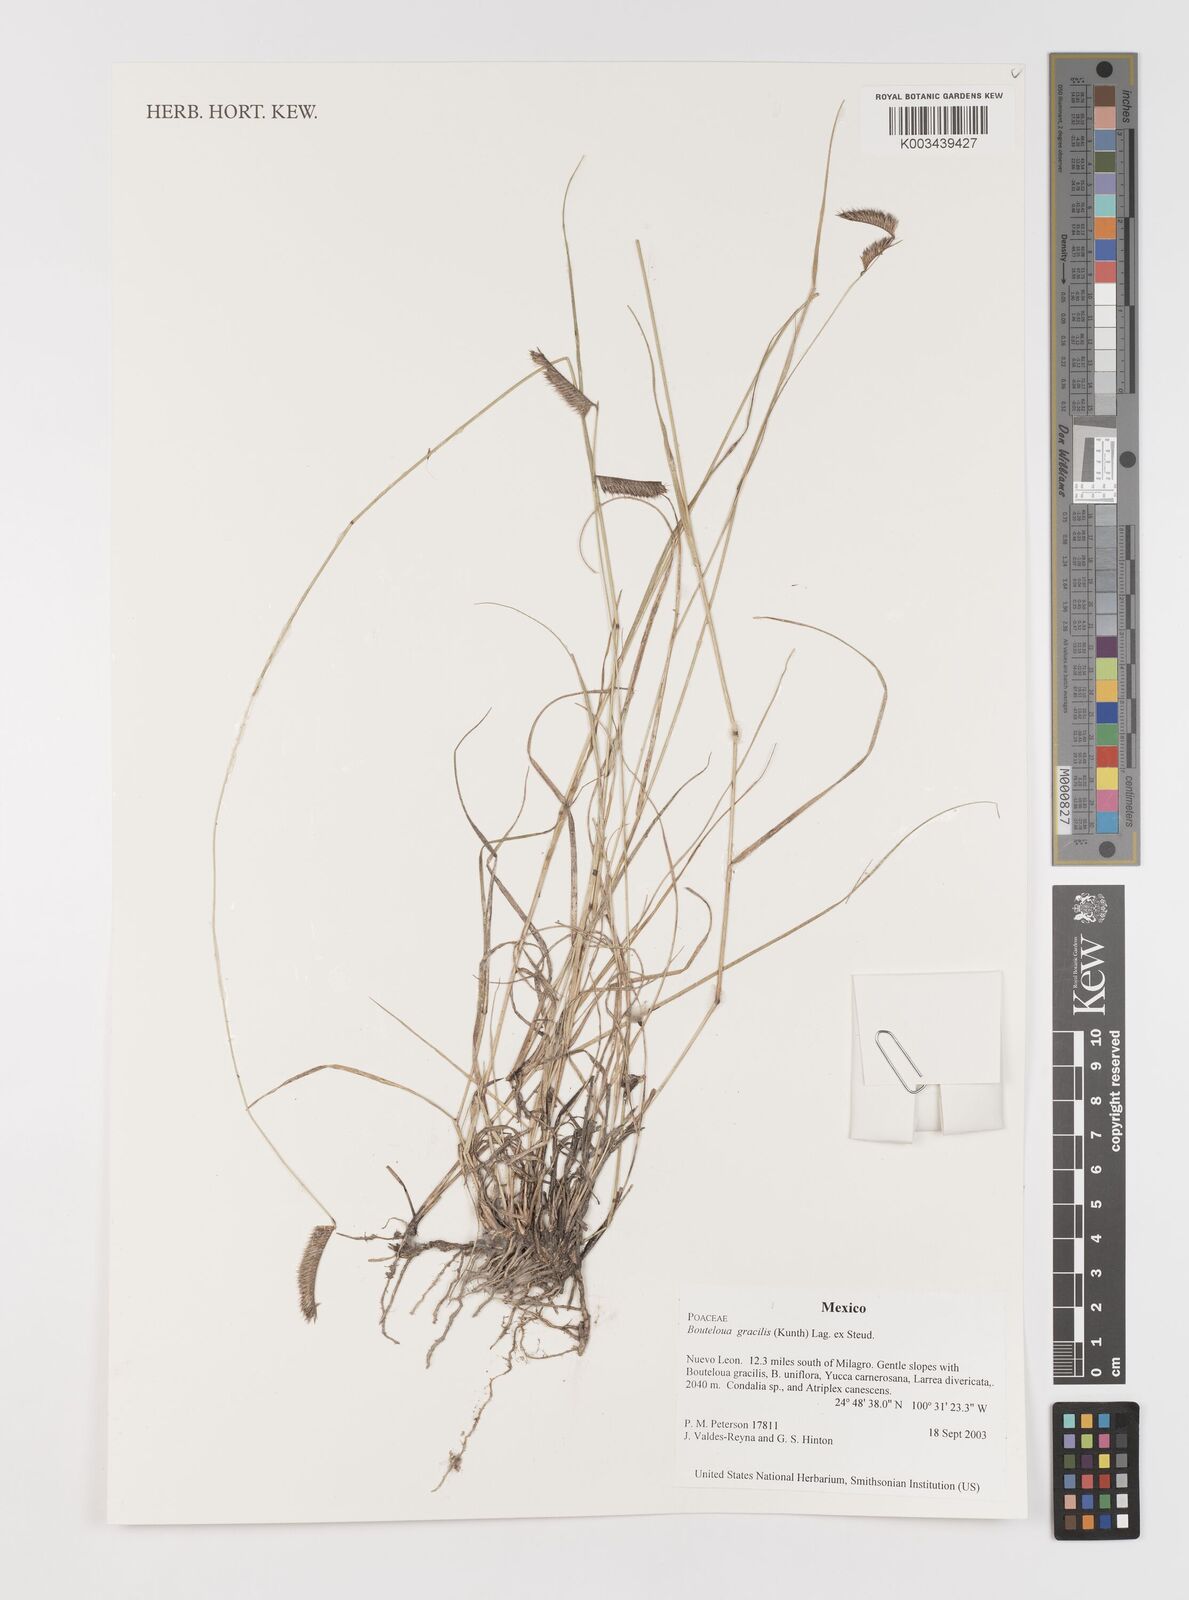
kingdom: Plantae
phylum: Tracheophyta
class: Liliopsida
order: Poales
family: Poaceae
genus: Bouteloua
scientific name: Bouteloua aristidoides
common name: Needle grama
